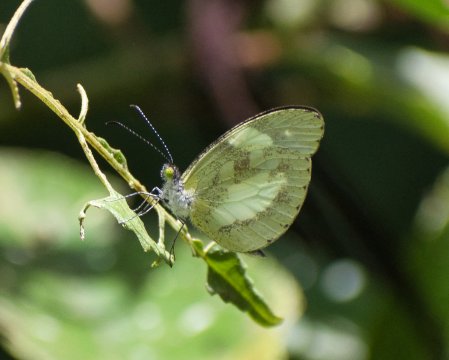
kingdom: Animalia
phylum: Arthropoda
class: Insecta
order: Lepidoptera
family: Pieridae
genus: Dismorphia
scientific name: Dismorphia zathoe
